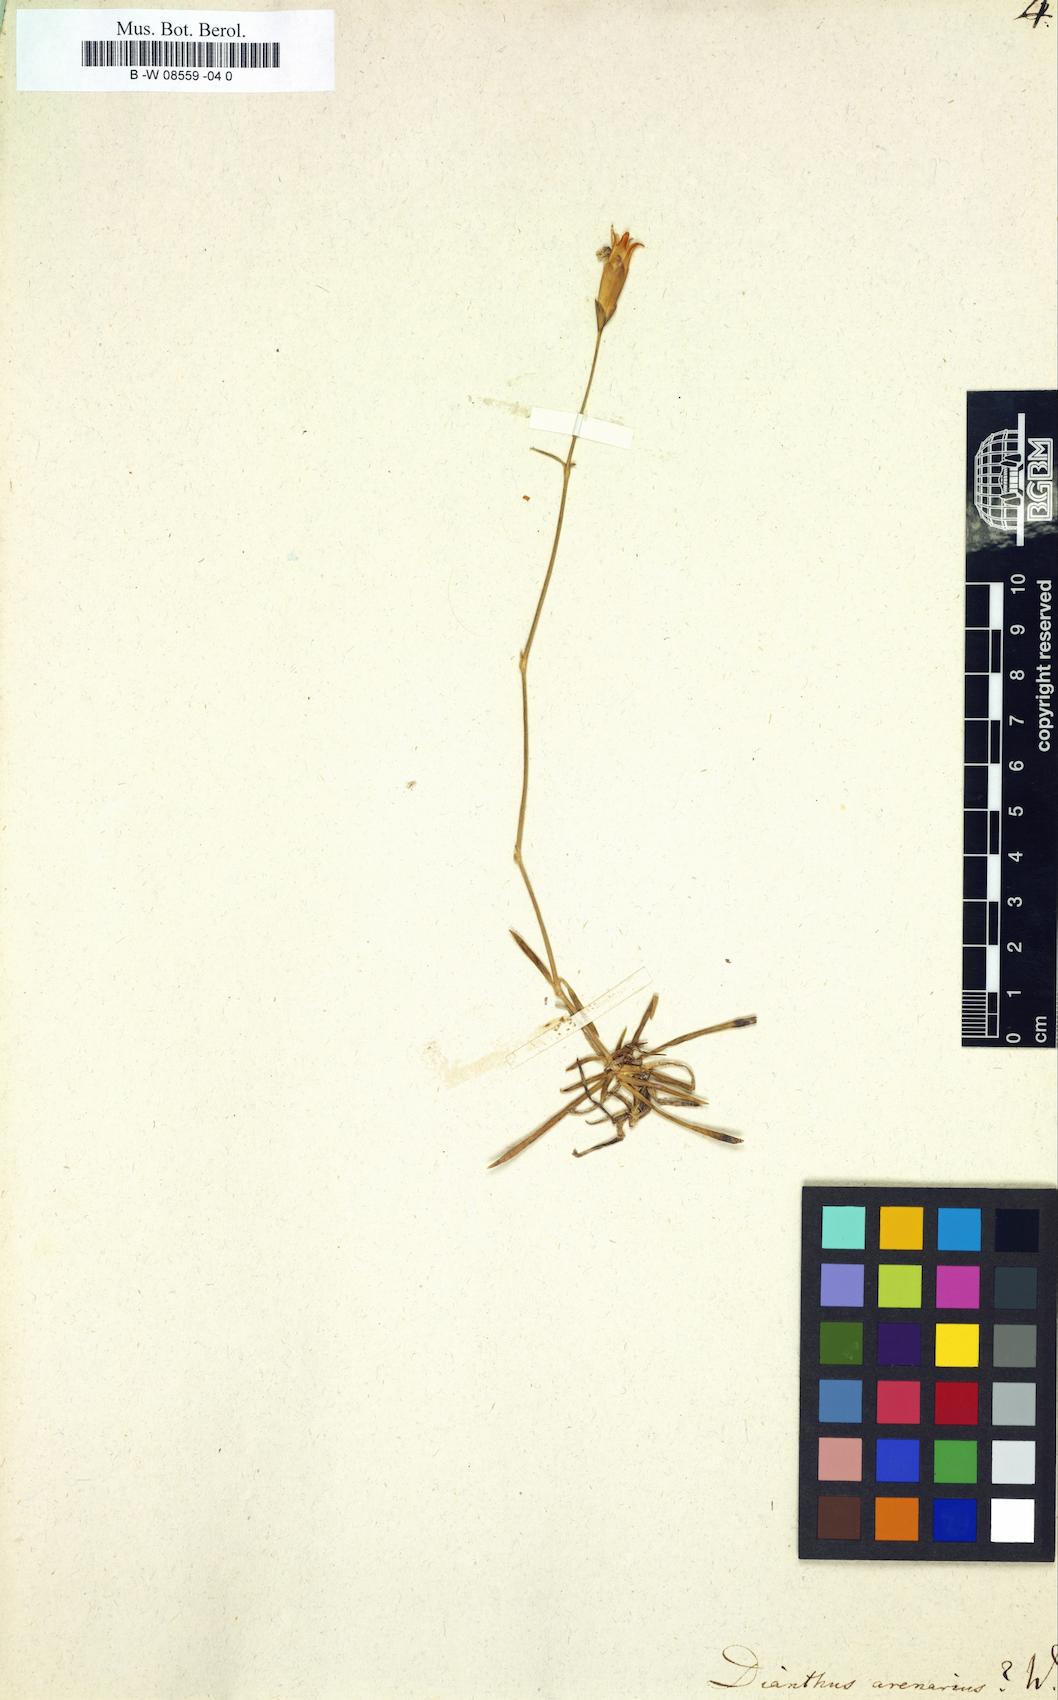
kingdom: Plantae
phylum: Tracheophyta
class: Magnoliopsida
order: Caryophyllales
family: Caryophyllaceae
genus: Dianthus
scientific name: Dianthus arenarius
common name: Stone pink
